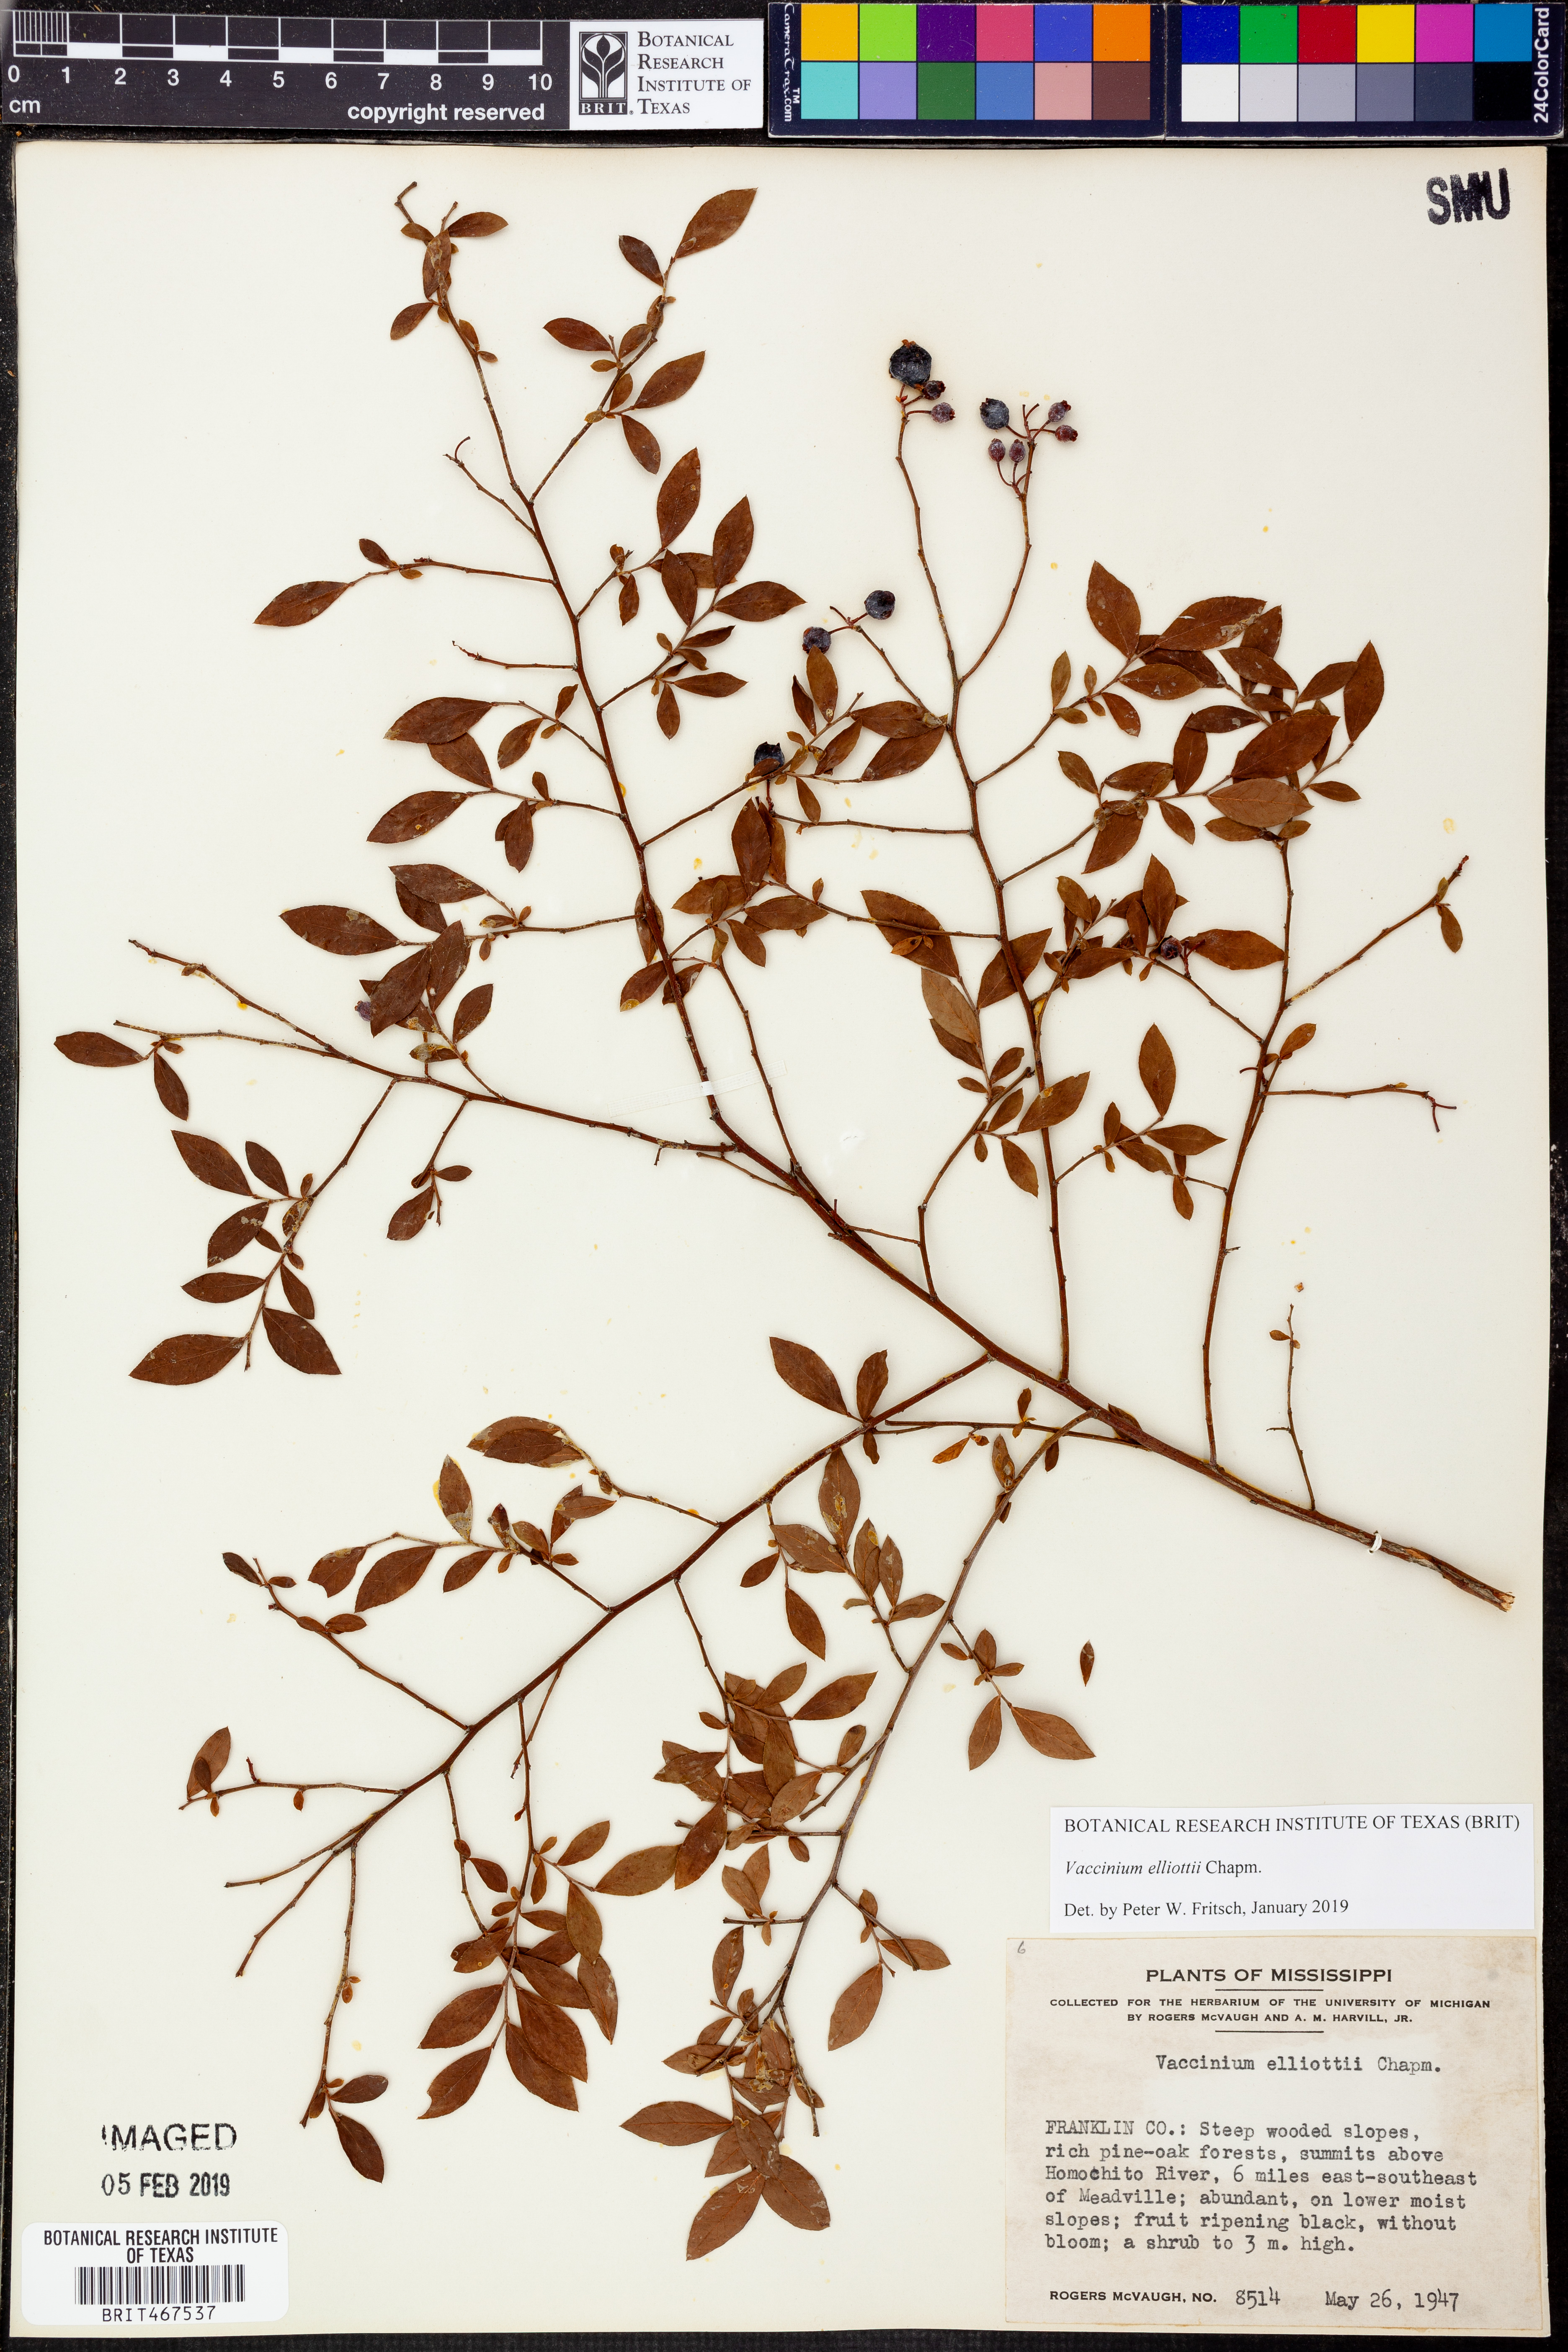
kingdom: Plantae
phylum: Tracheophyta
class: Magnoliopsida
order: Ericales
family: Ericaceae
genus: Vaccinium
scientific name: Vaccinium corymbosum
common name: Blueberry
